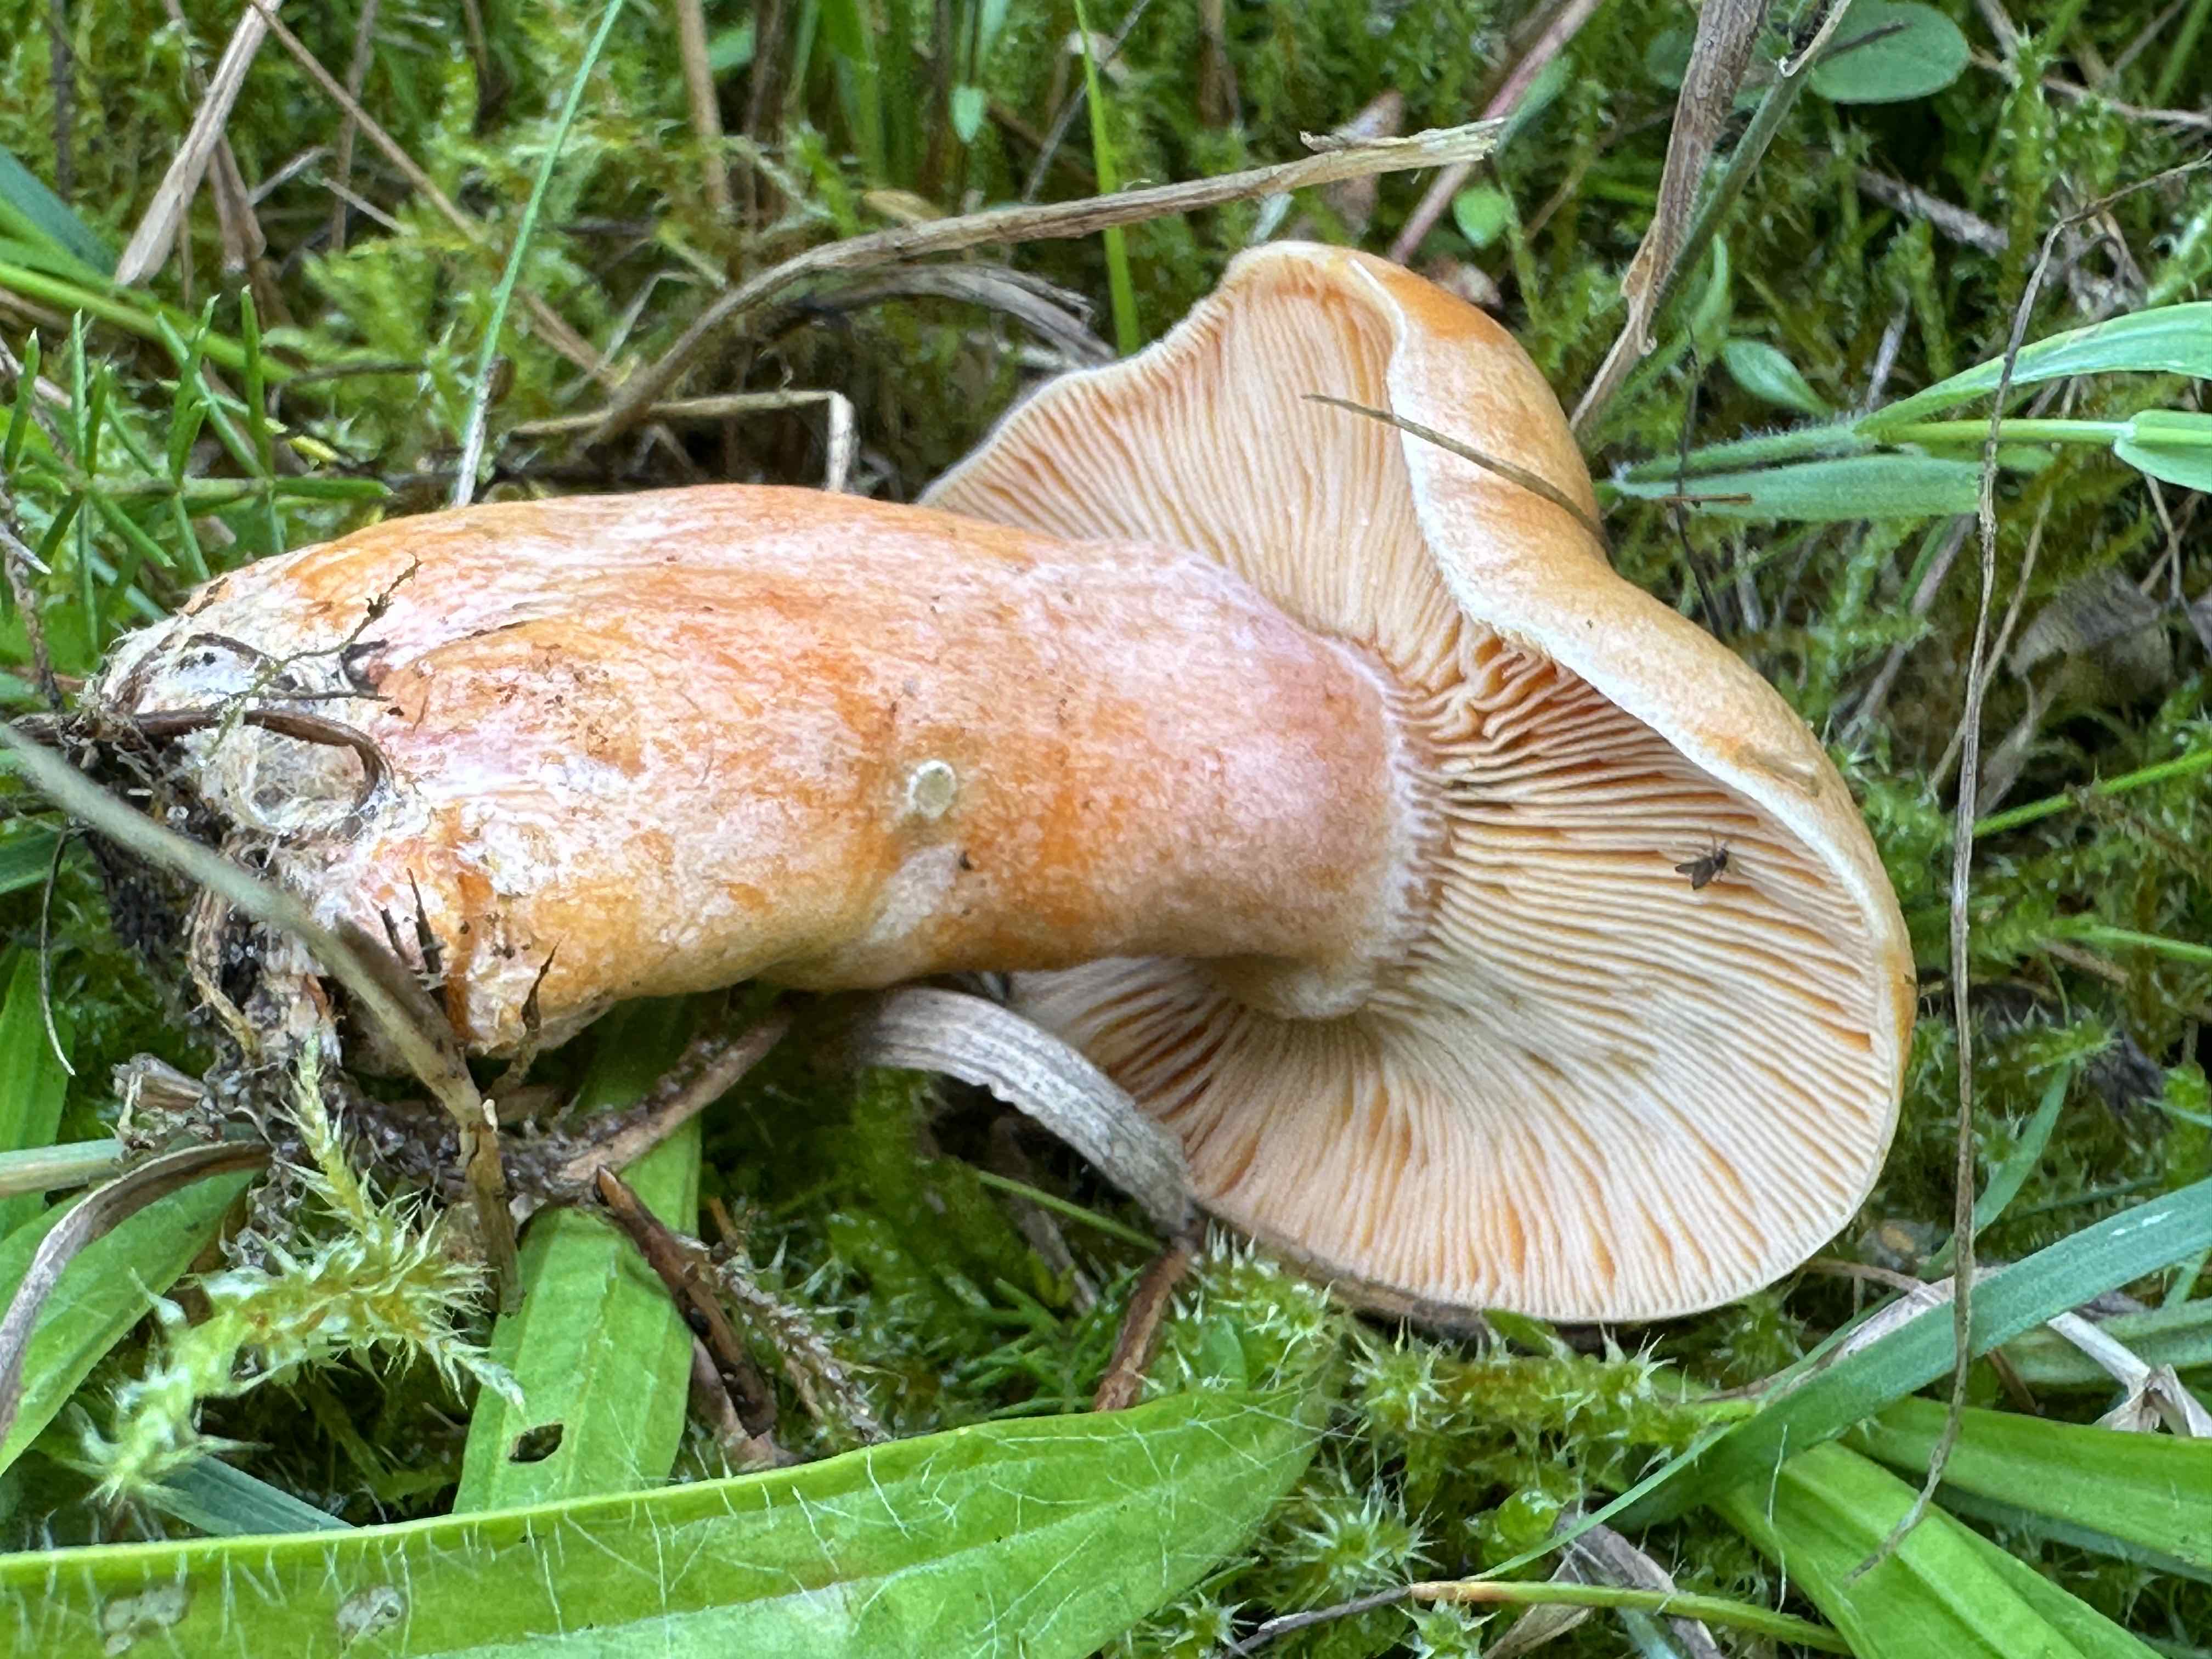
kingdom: Fungi
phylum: Basidiomycota
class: Agaricomycetes
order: Russulales
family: Russulaceae
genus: Lactarius
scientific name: Lactarius deterrimus
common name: gran-mælkehat
